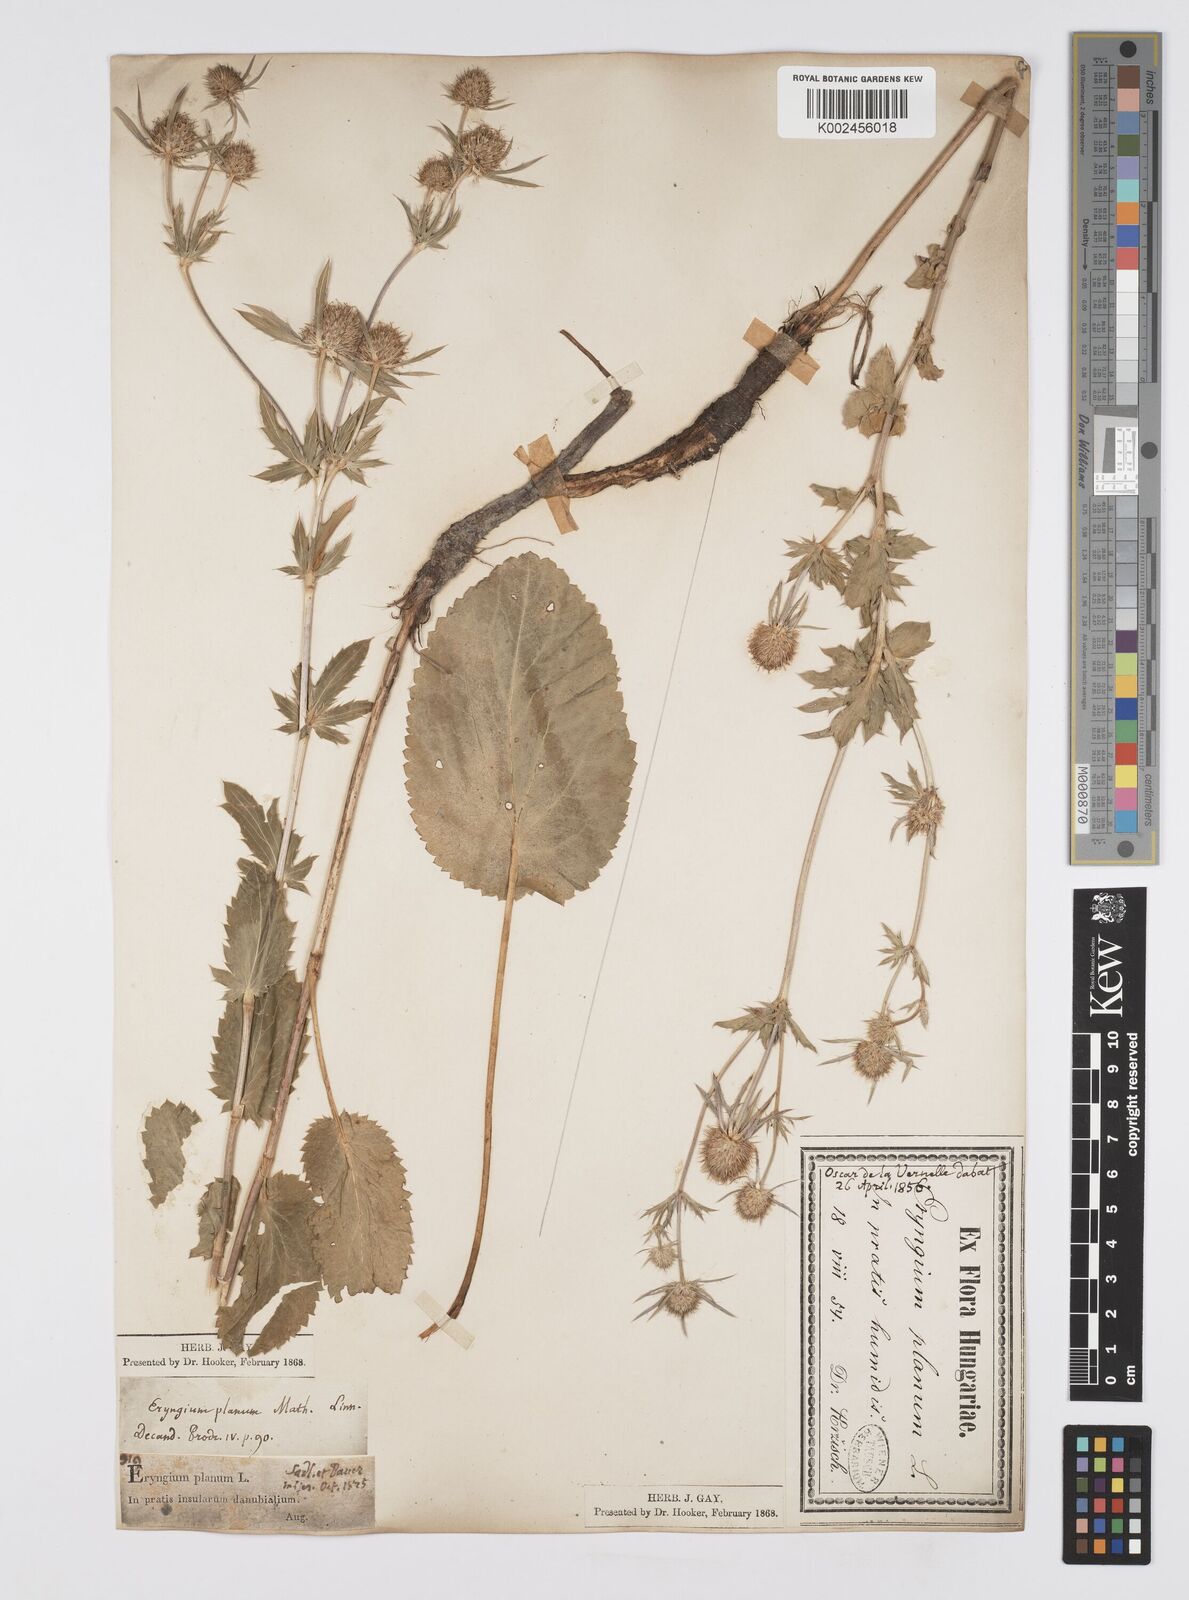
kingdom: Plantae
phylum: Tracheophyta
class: Magnoliopsida
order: Apiales
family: Apiaceae
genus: Eryngium
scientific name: Eryngium planum
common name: Blue eryngo
